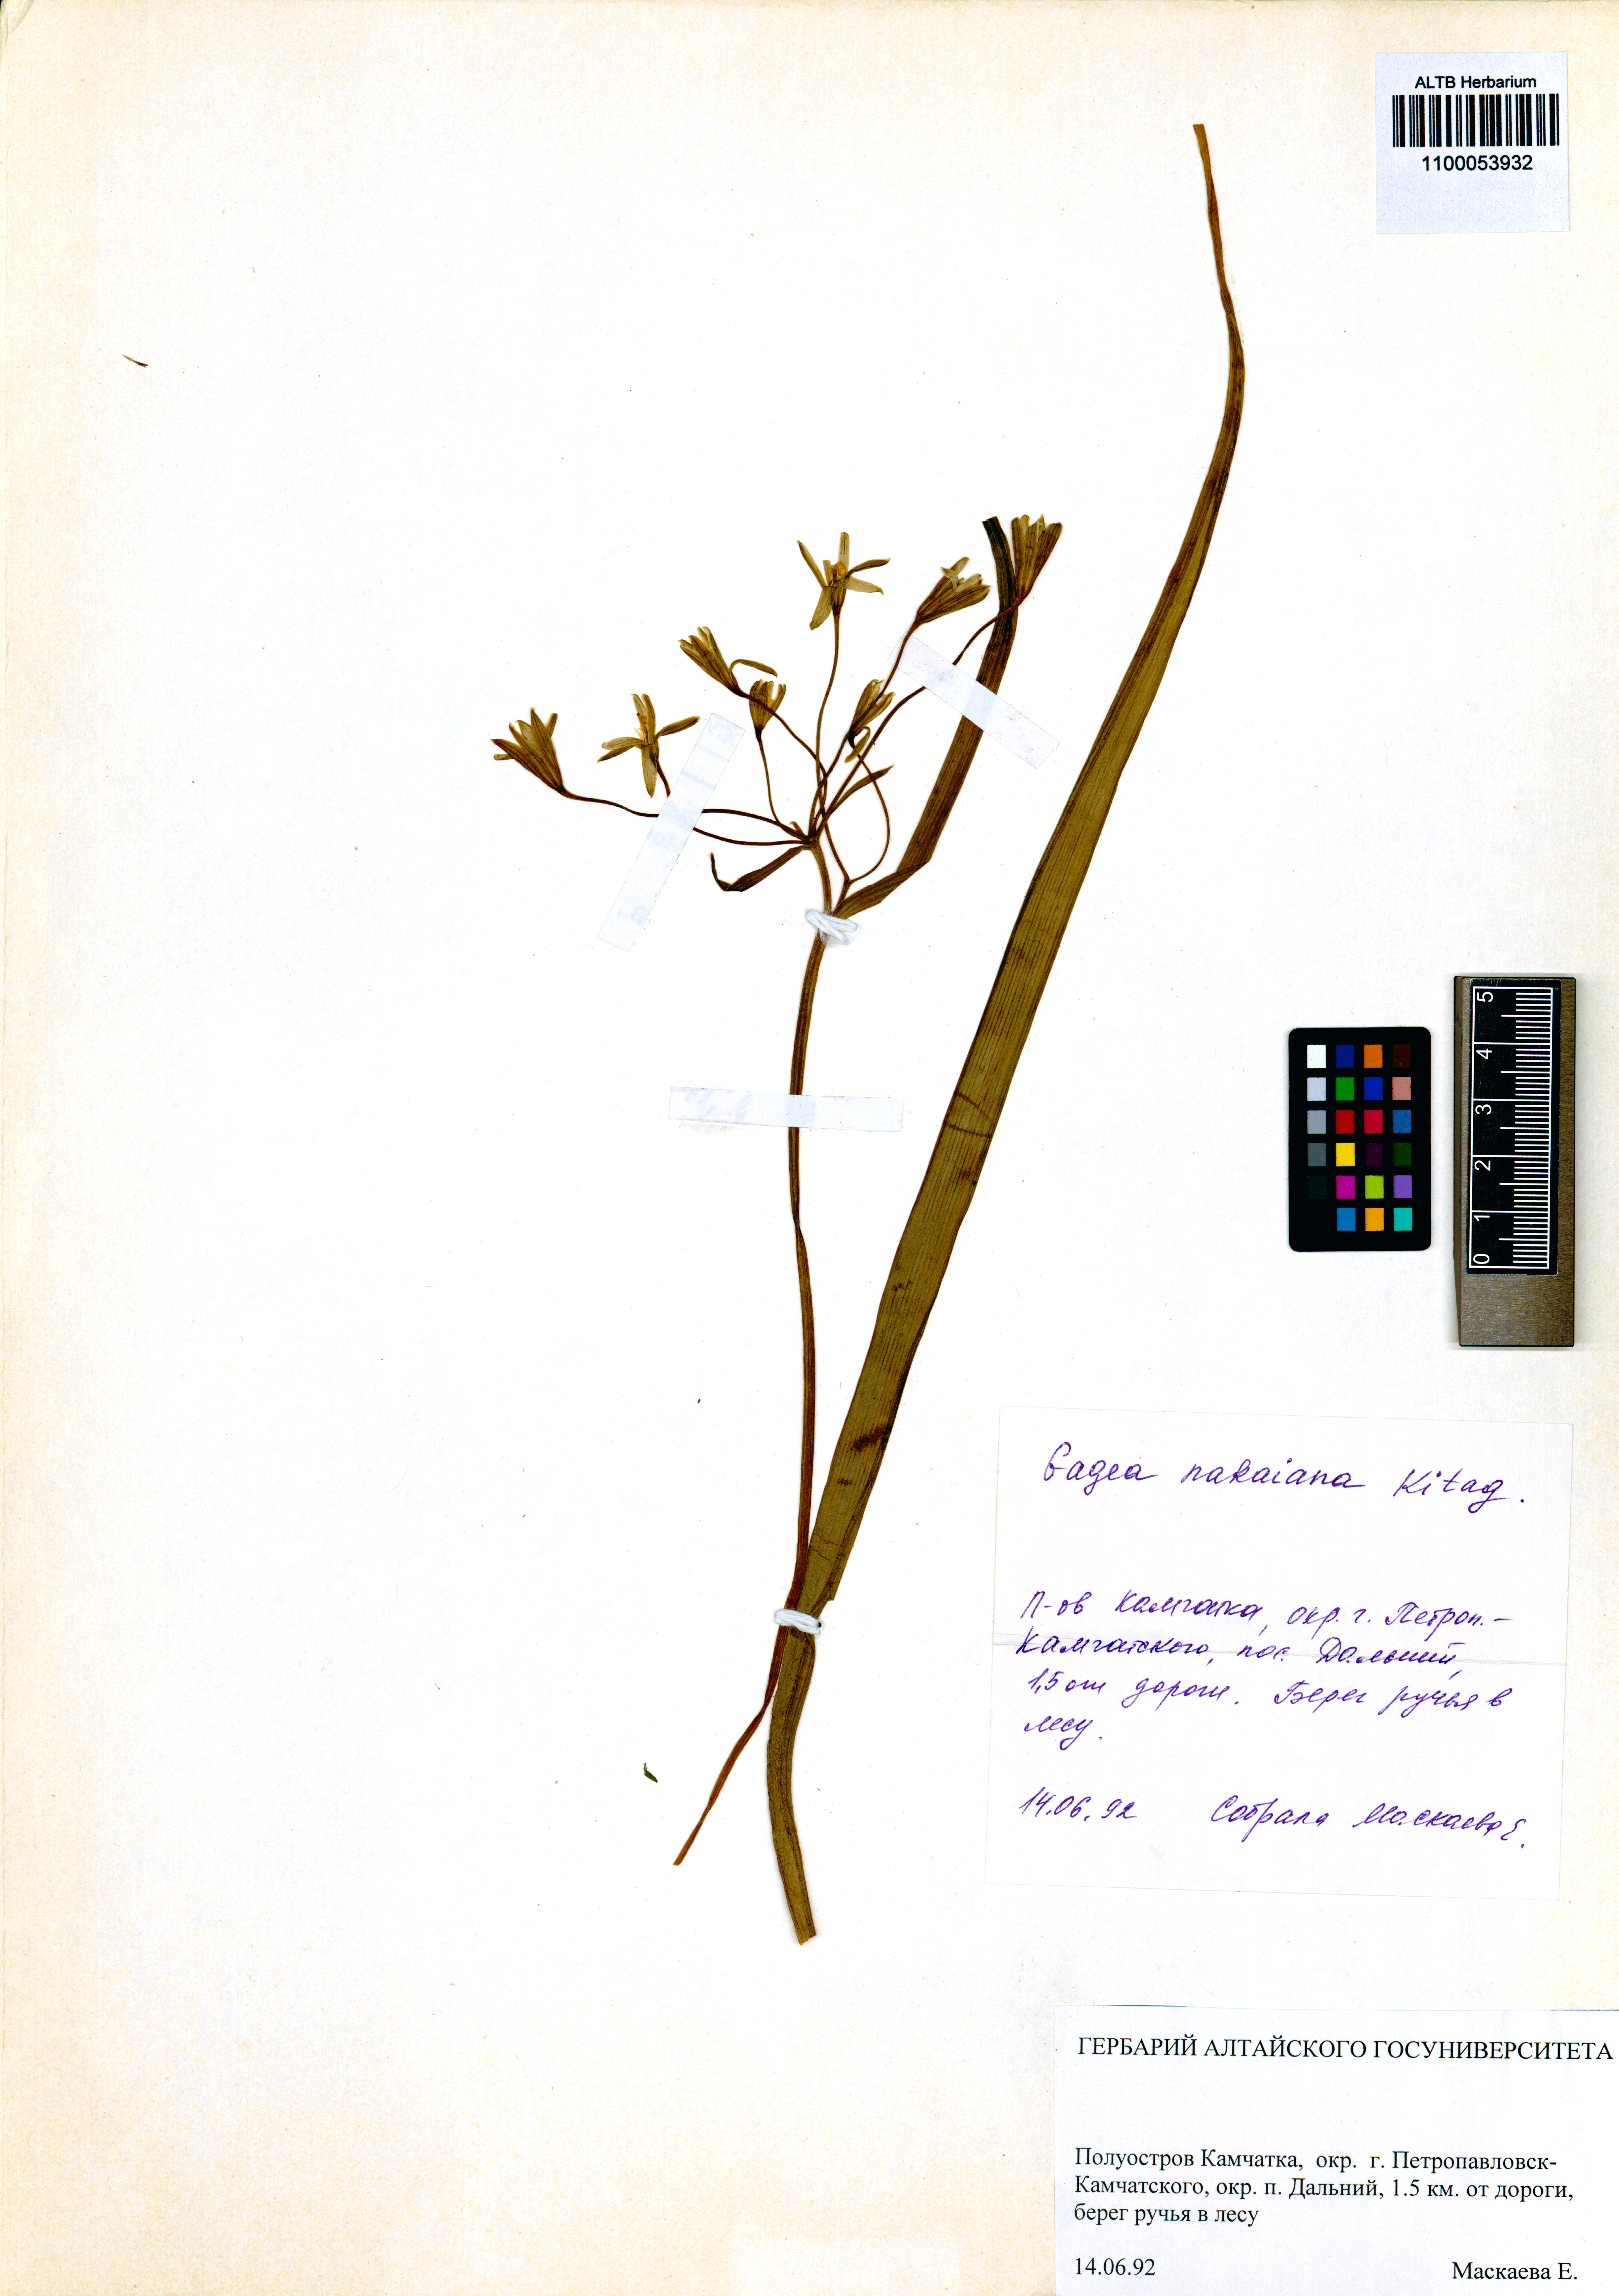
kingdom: Plantae
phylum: Tracheophyta
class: Liliopsida
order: Liliales
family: Liliaceae
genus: Gagea
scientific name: Gagea nakaiana
